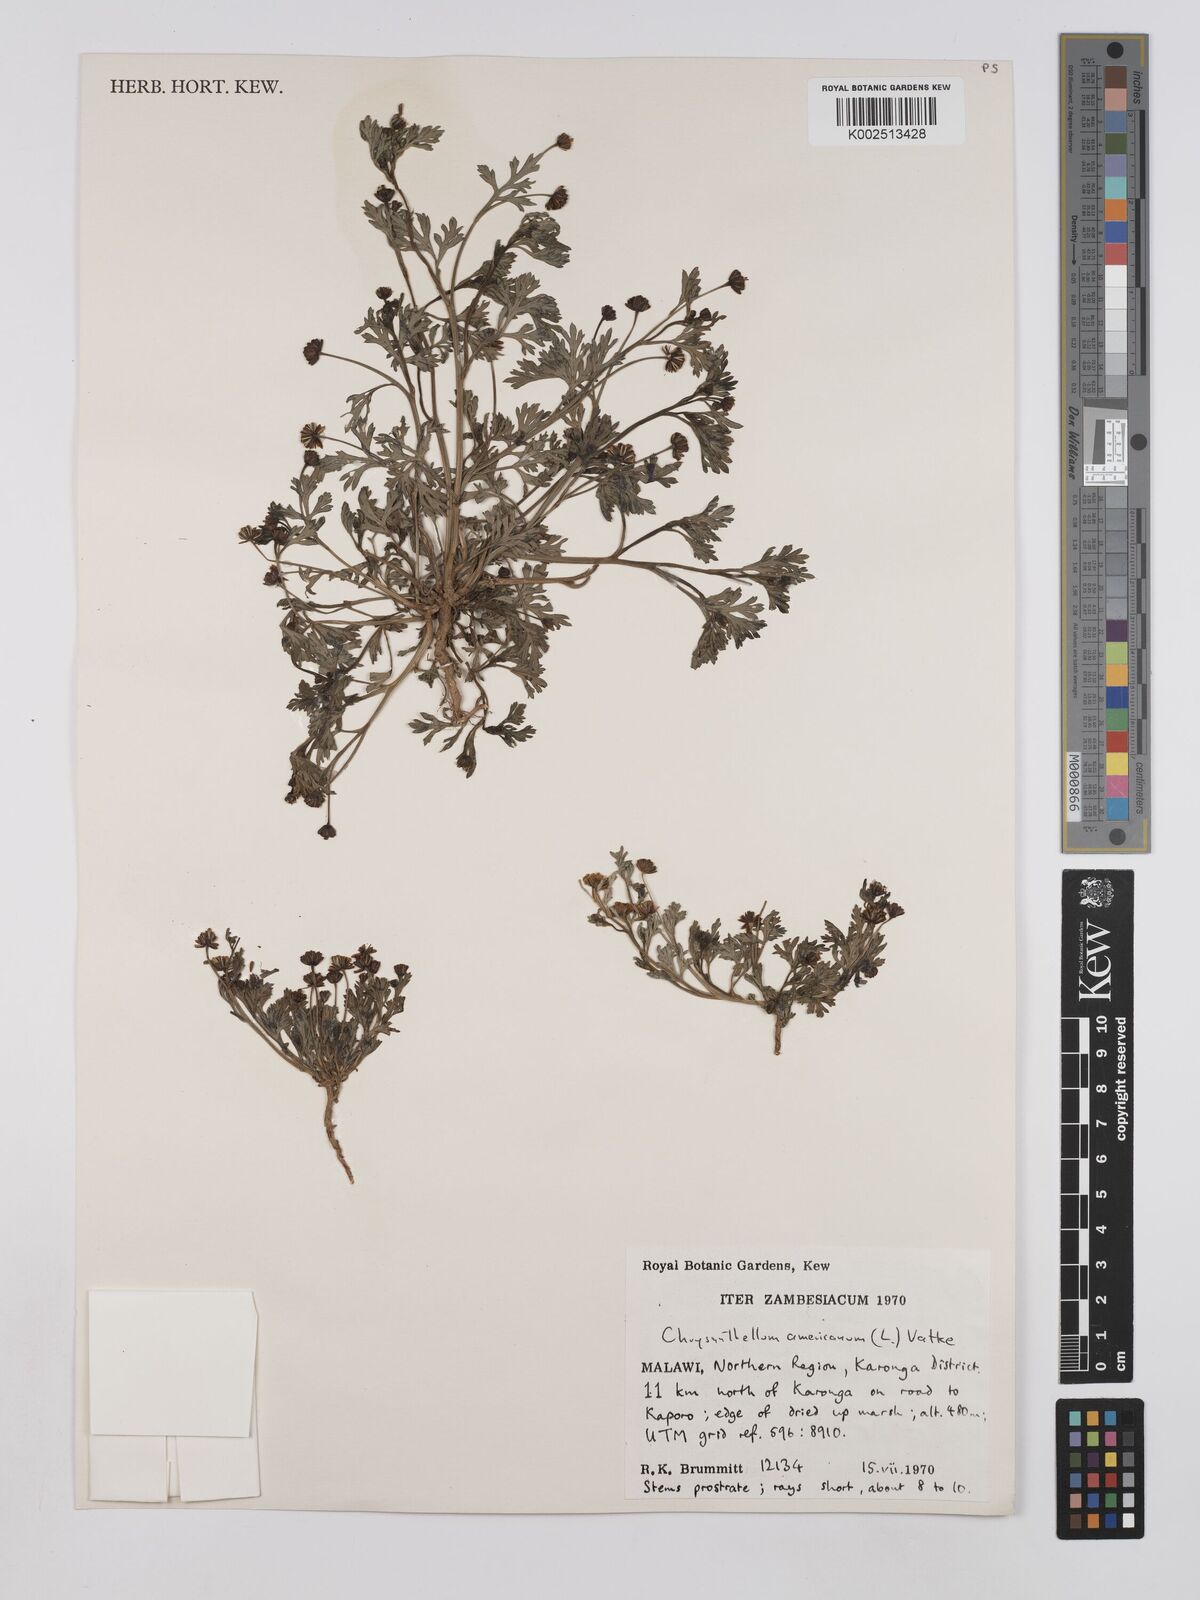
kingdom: Plantae
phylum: Tracheophyta
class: Magnoliopsida
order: Asterales
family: Asteraceae
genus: Chrysanthellum
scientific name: Chrysanthellum indicum
